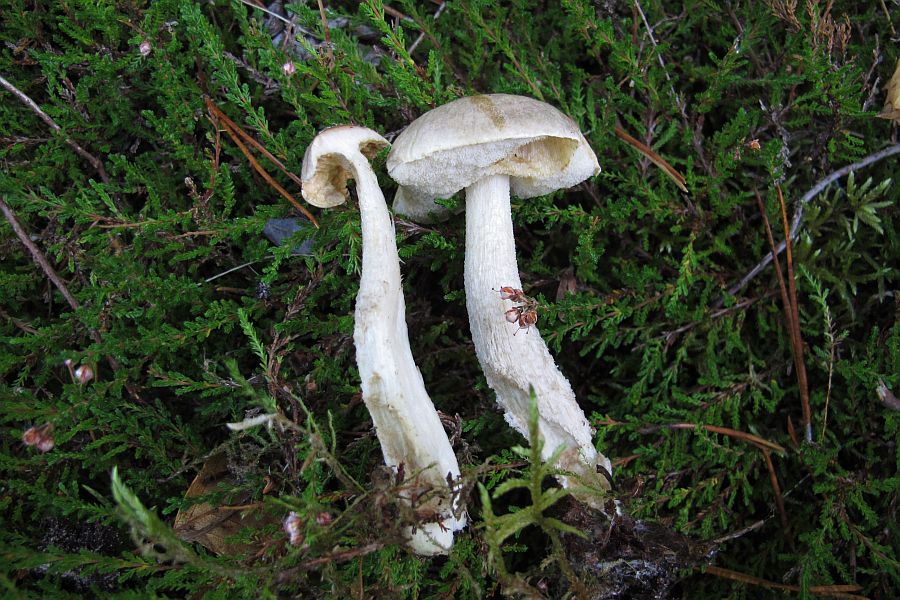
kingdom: Fungi
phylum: Basidiomycota
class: Agaricomycetes
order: Boletales
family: Boletaceae
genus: Leccinum
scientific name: Leccinum schistophilum
